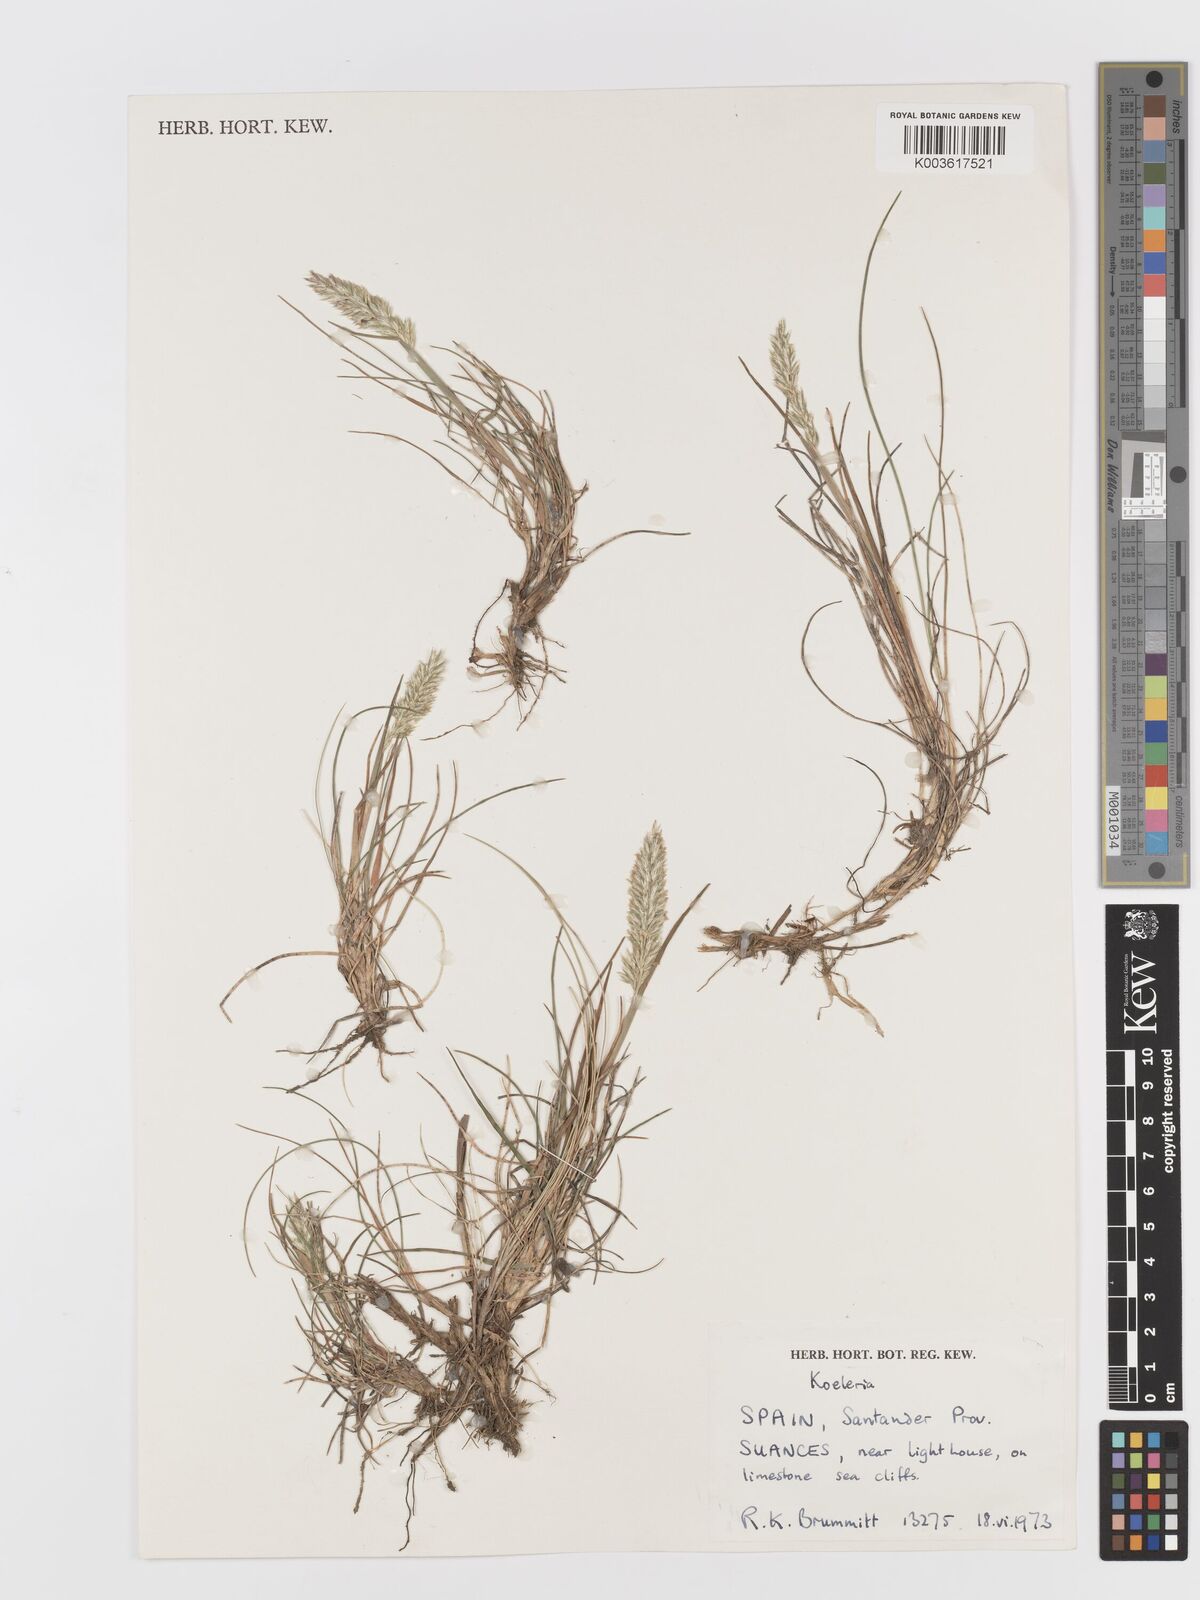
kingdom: Plantae
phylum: Tracheophyta
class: Liliopsida
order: Poales
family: Poaceae
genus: Koeleria
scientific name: Koeleria
